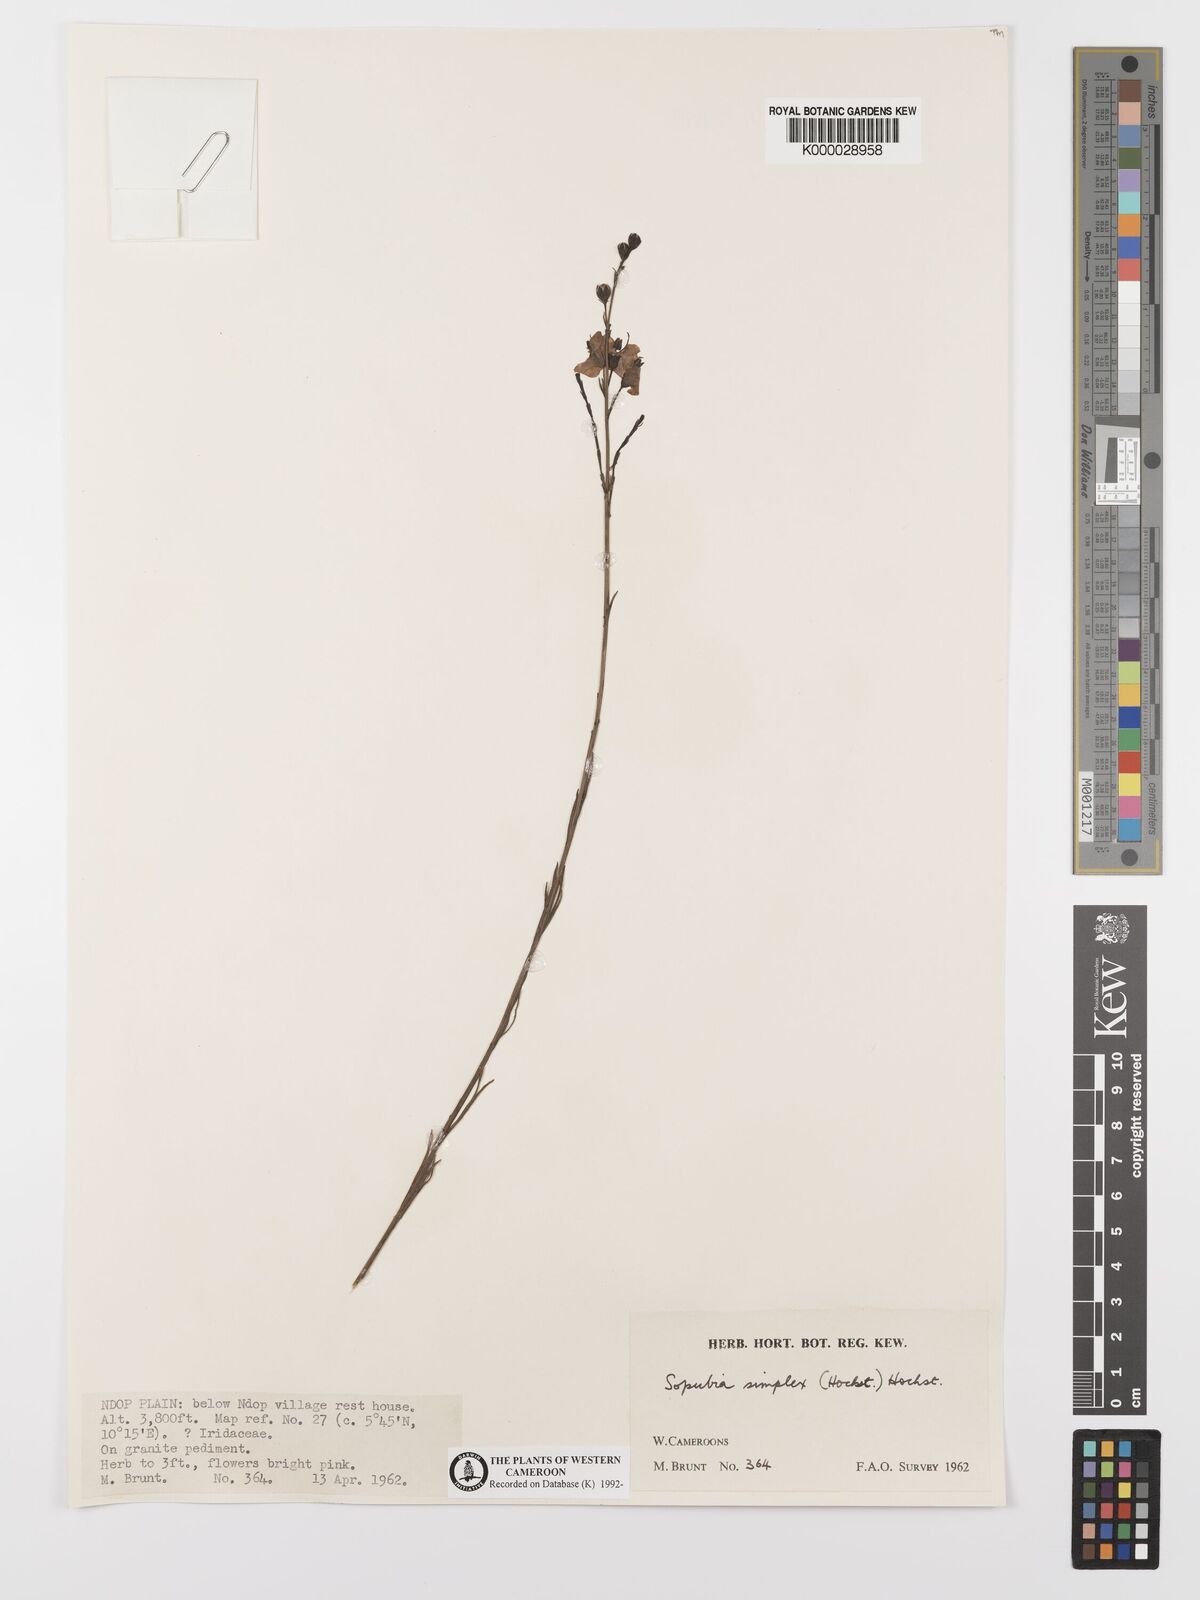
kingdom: Plantae
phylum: Tracheophyta
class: Magnoliopsida
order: Lamiales
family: Orobanchaceae
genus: Sopubia
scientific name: Sopubia simplex
